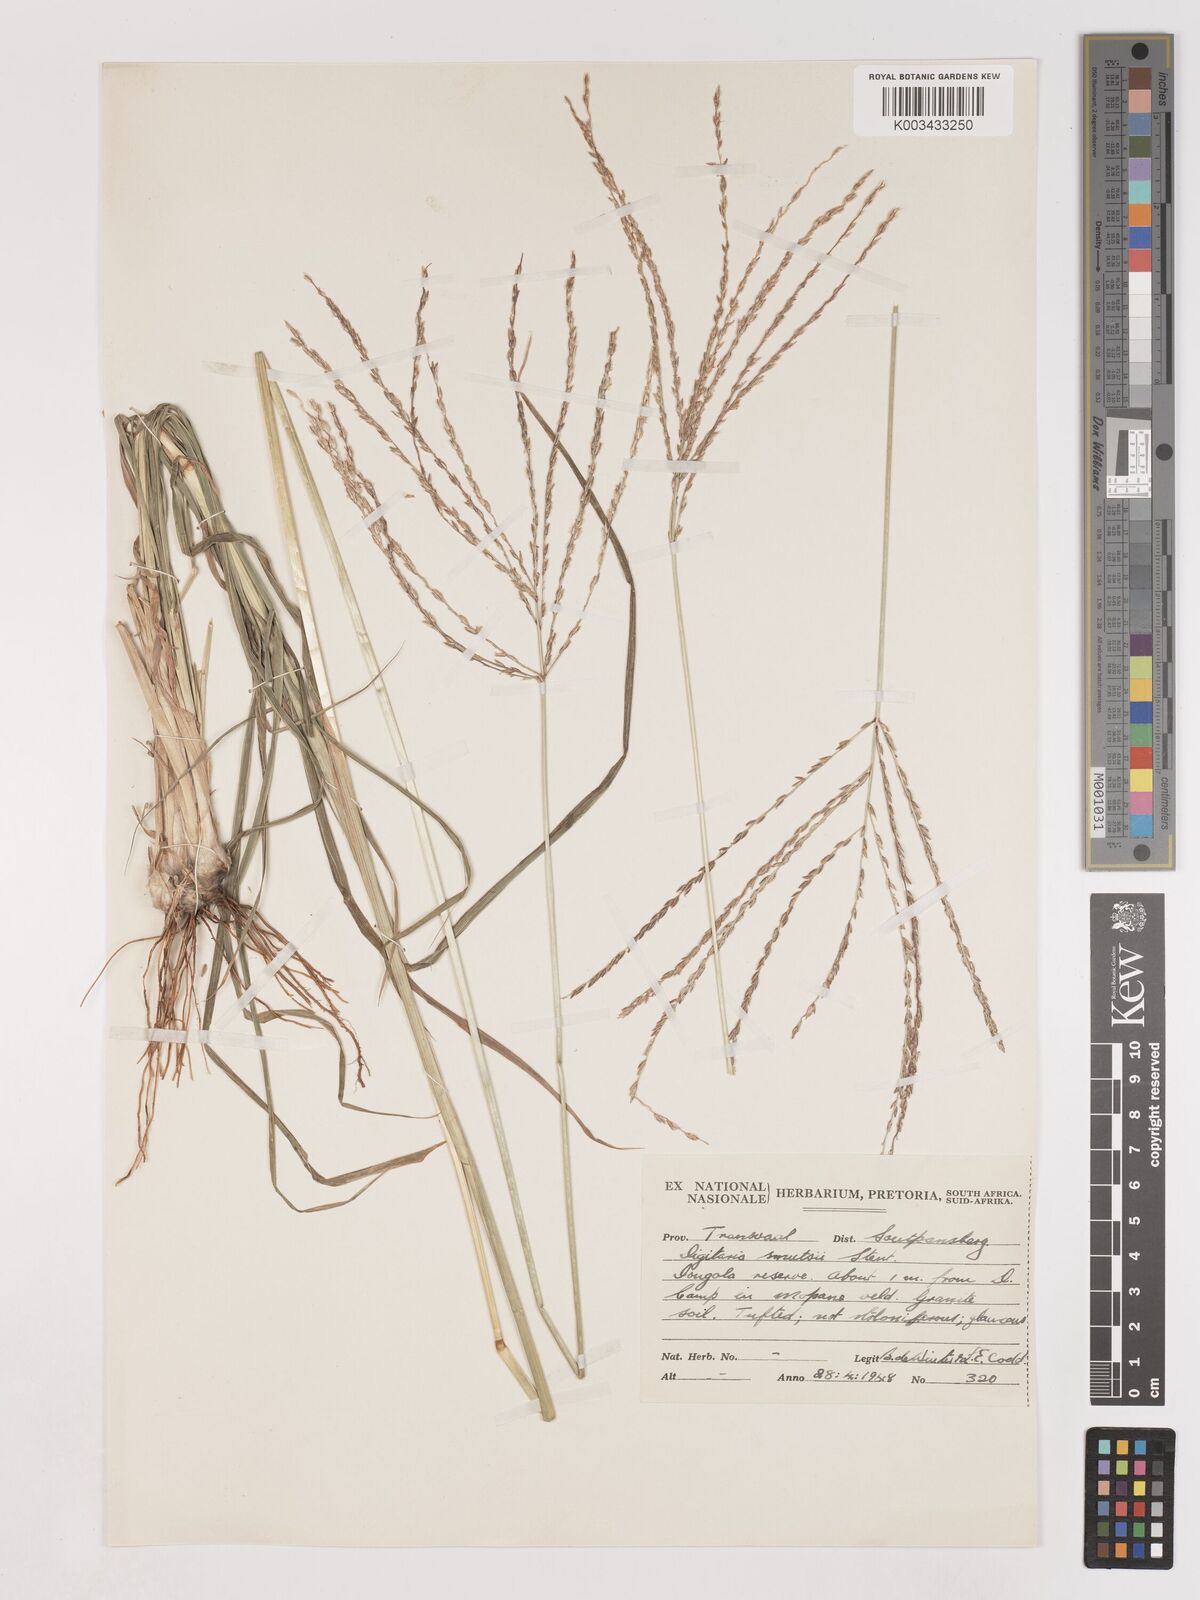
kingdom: Plantae
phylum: Tracheophyta
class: Liliopsida
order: Poales
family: Poaceae
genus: Digitaria
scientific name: Digitaria eriantha
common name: Digitgrass
